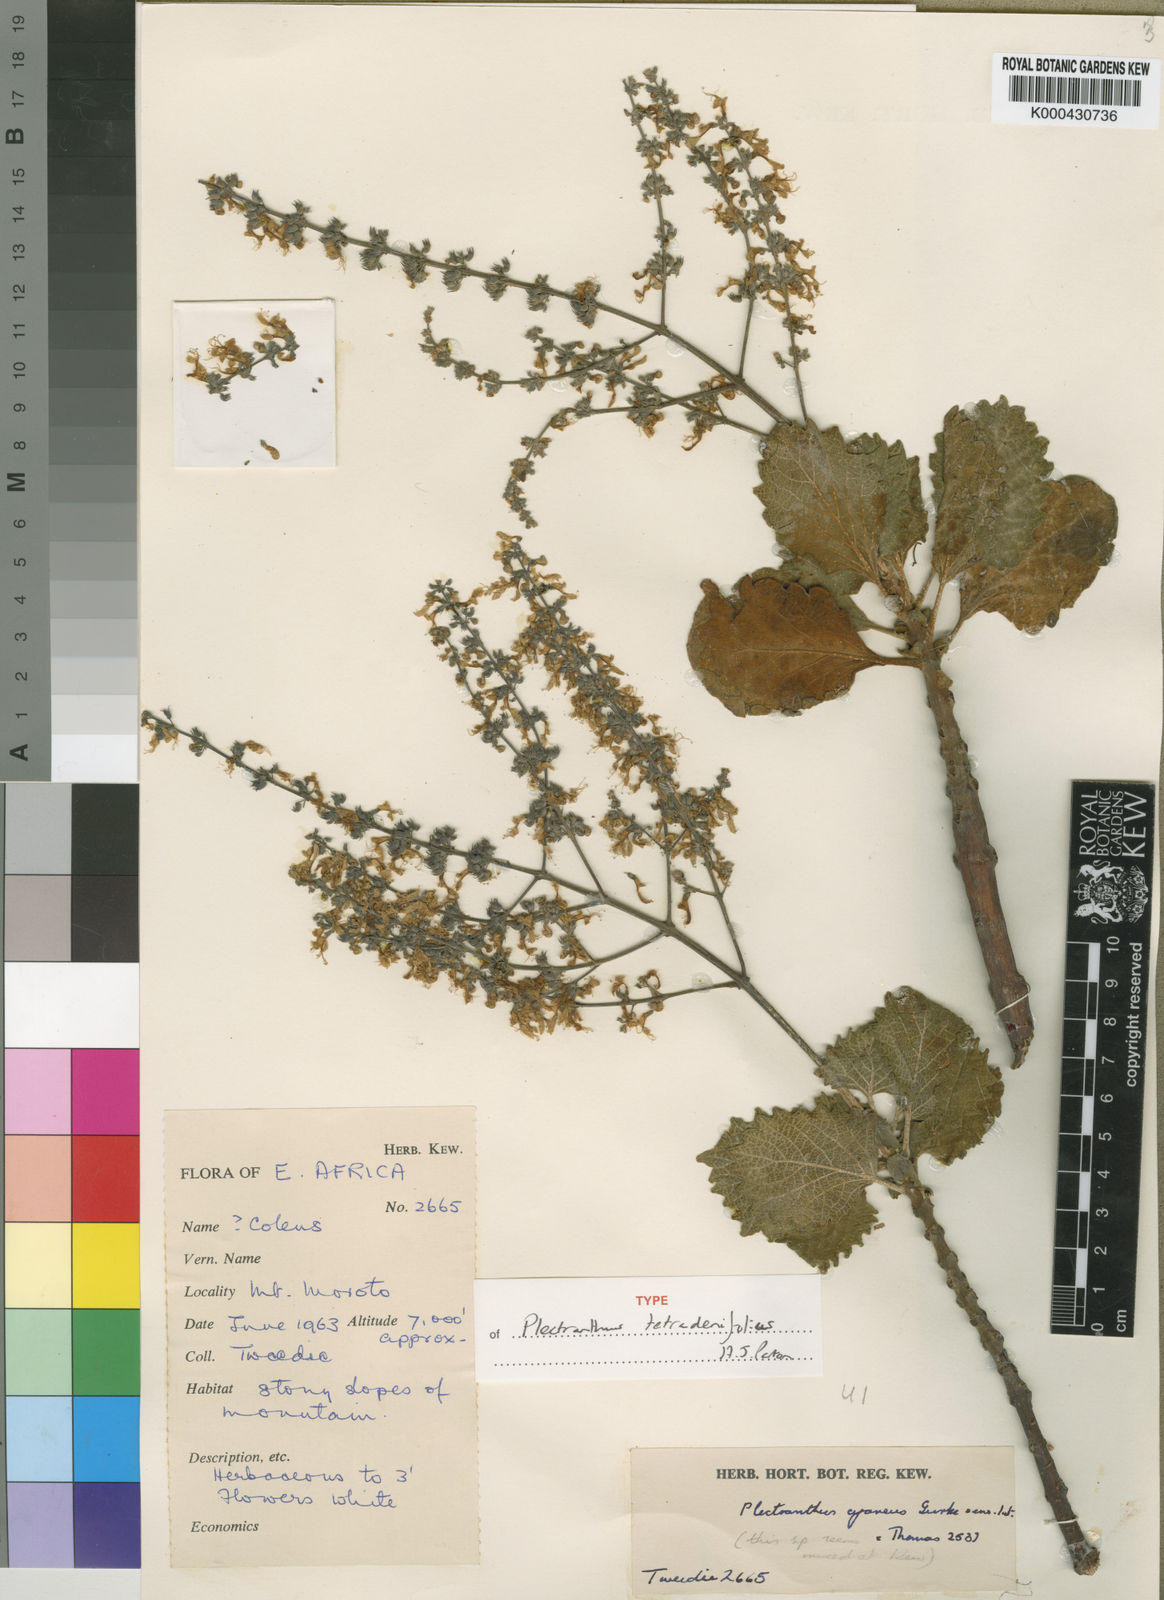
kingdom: Plantae
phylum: Tracheophyta
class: Magnoliopsida
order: Lamiales
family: Lamiaceae
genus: Coleus
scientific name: Coleus marrubatus
